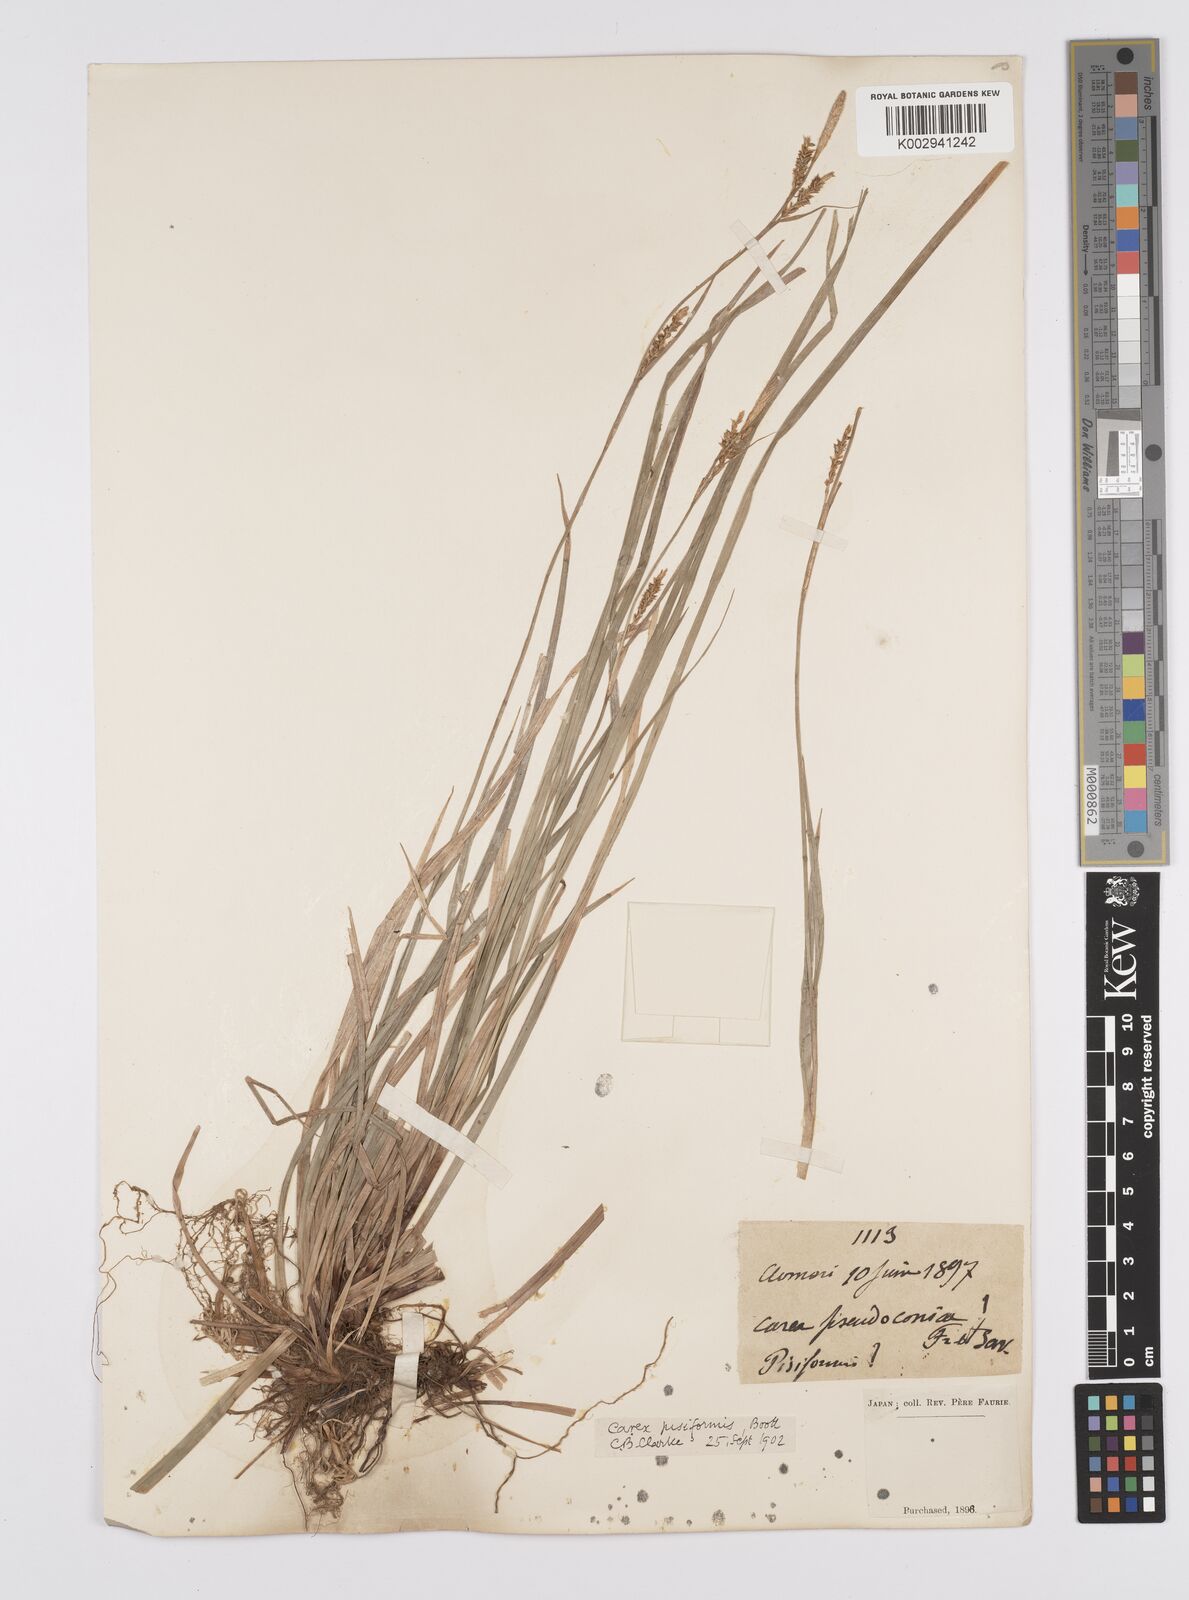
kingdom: Plantae
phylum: Tracheophyta
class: Liliopsida
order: Poales
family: Cyperaceae
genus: Carex
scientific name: Carex pisiformis
